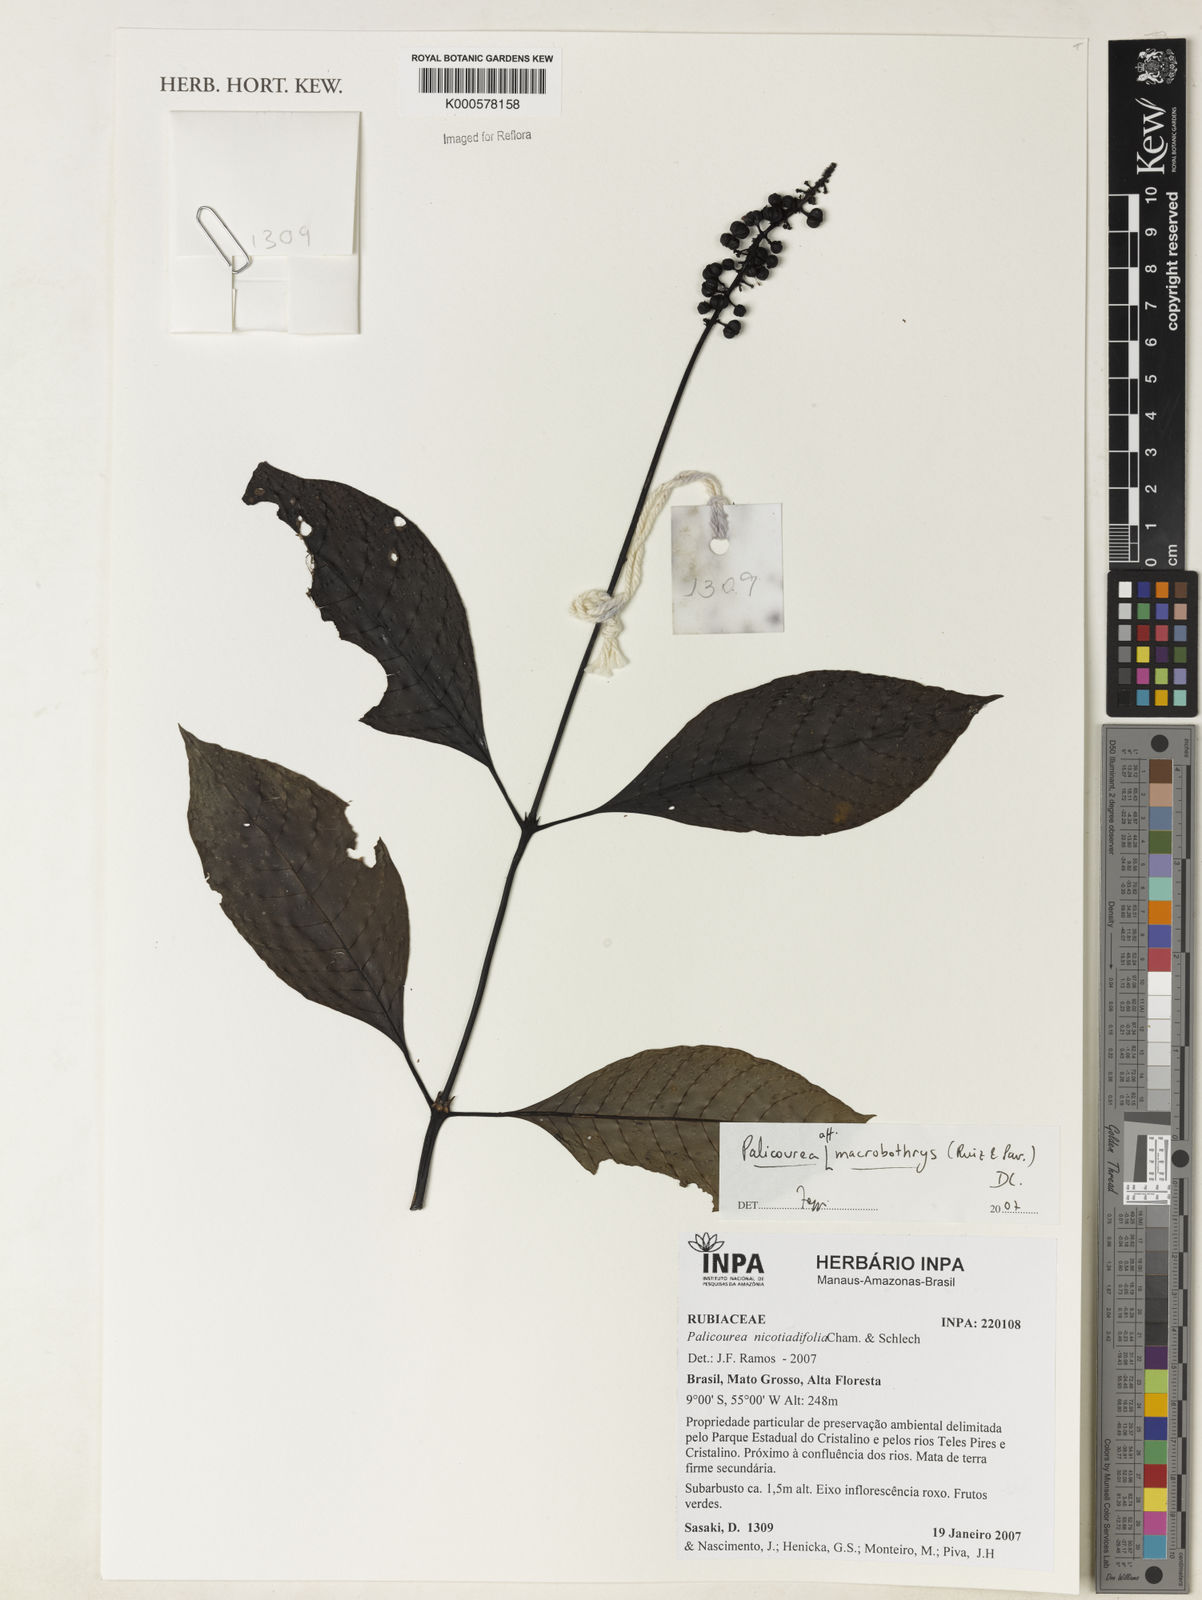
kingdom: Plantae
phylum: Tracheophyta
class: Magnoliopsida
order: Gentianales
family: Rubiaceae
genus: Palicourea
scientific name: Palicourea subspicata
